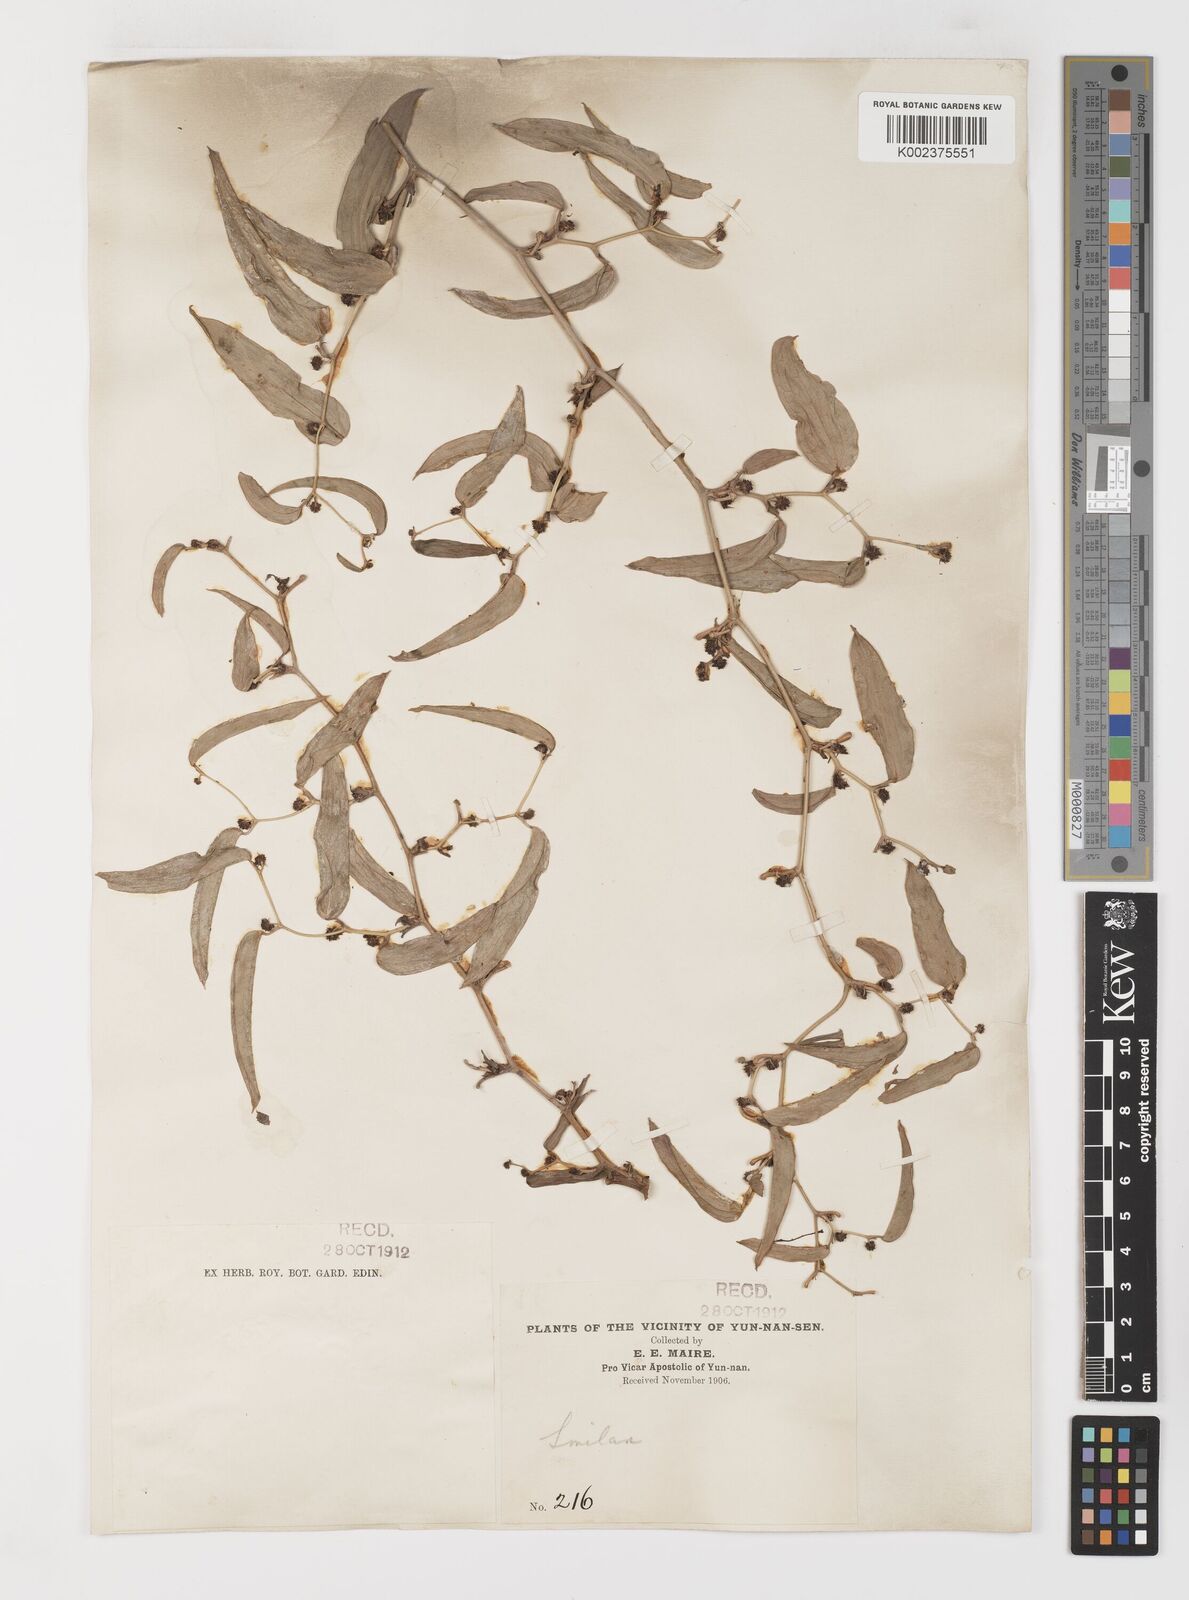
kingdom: Plantae
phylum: Tracheophyta
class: Liliopsida
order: Liliales
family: Smilacaceae
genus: Smilax
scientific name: Smilax lanceifolia
